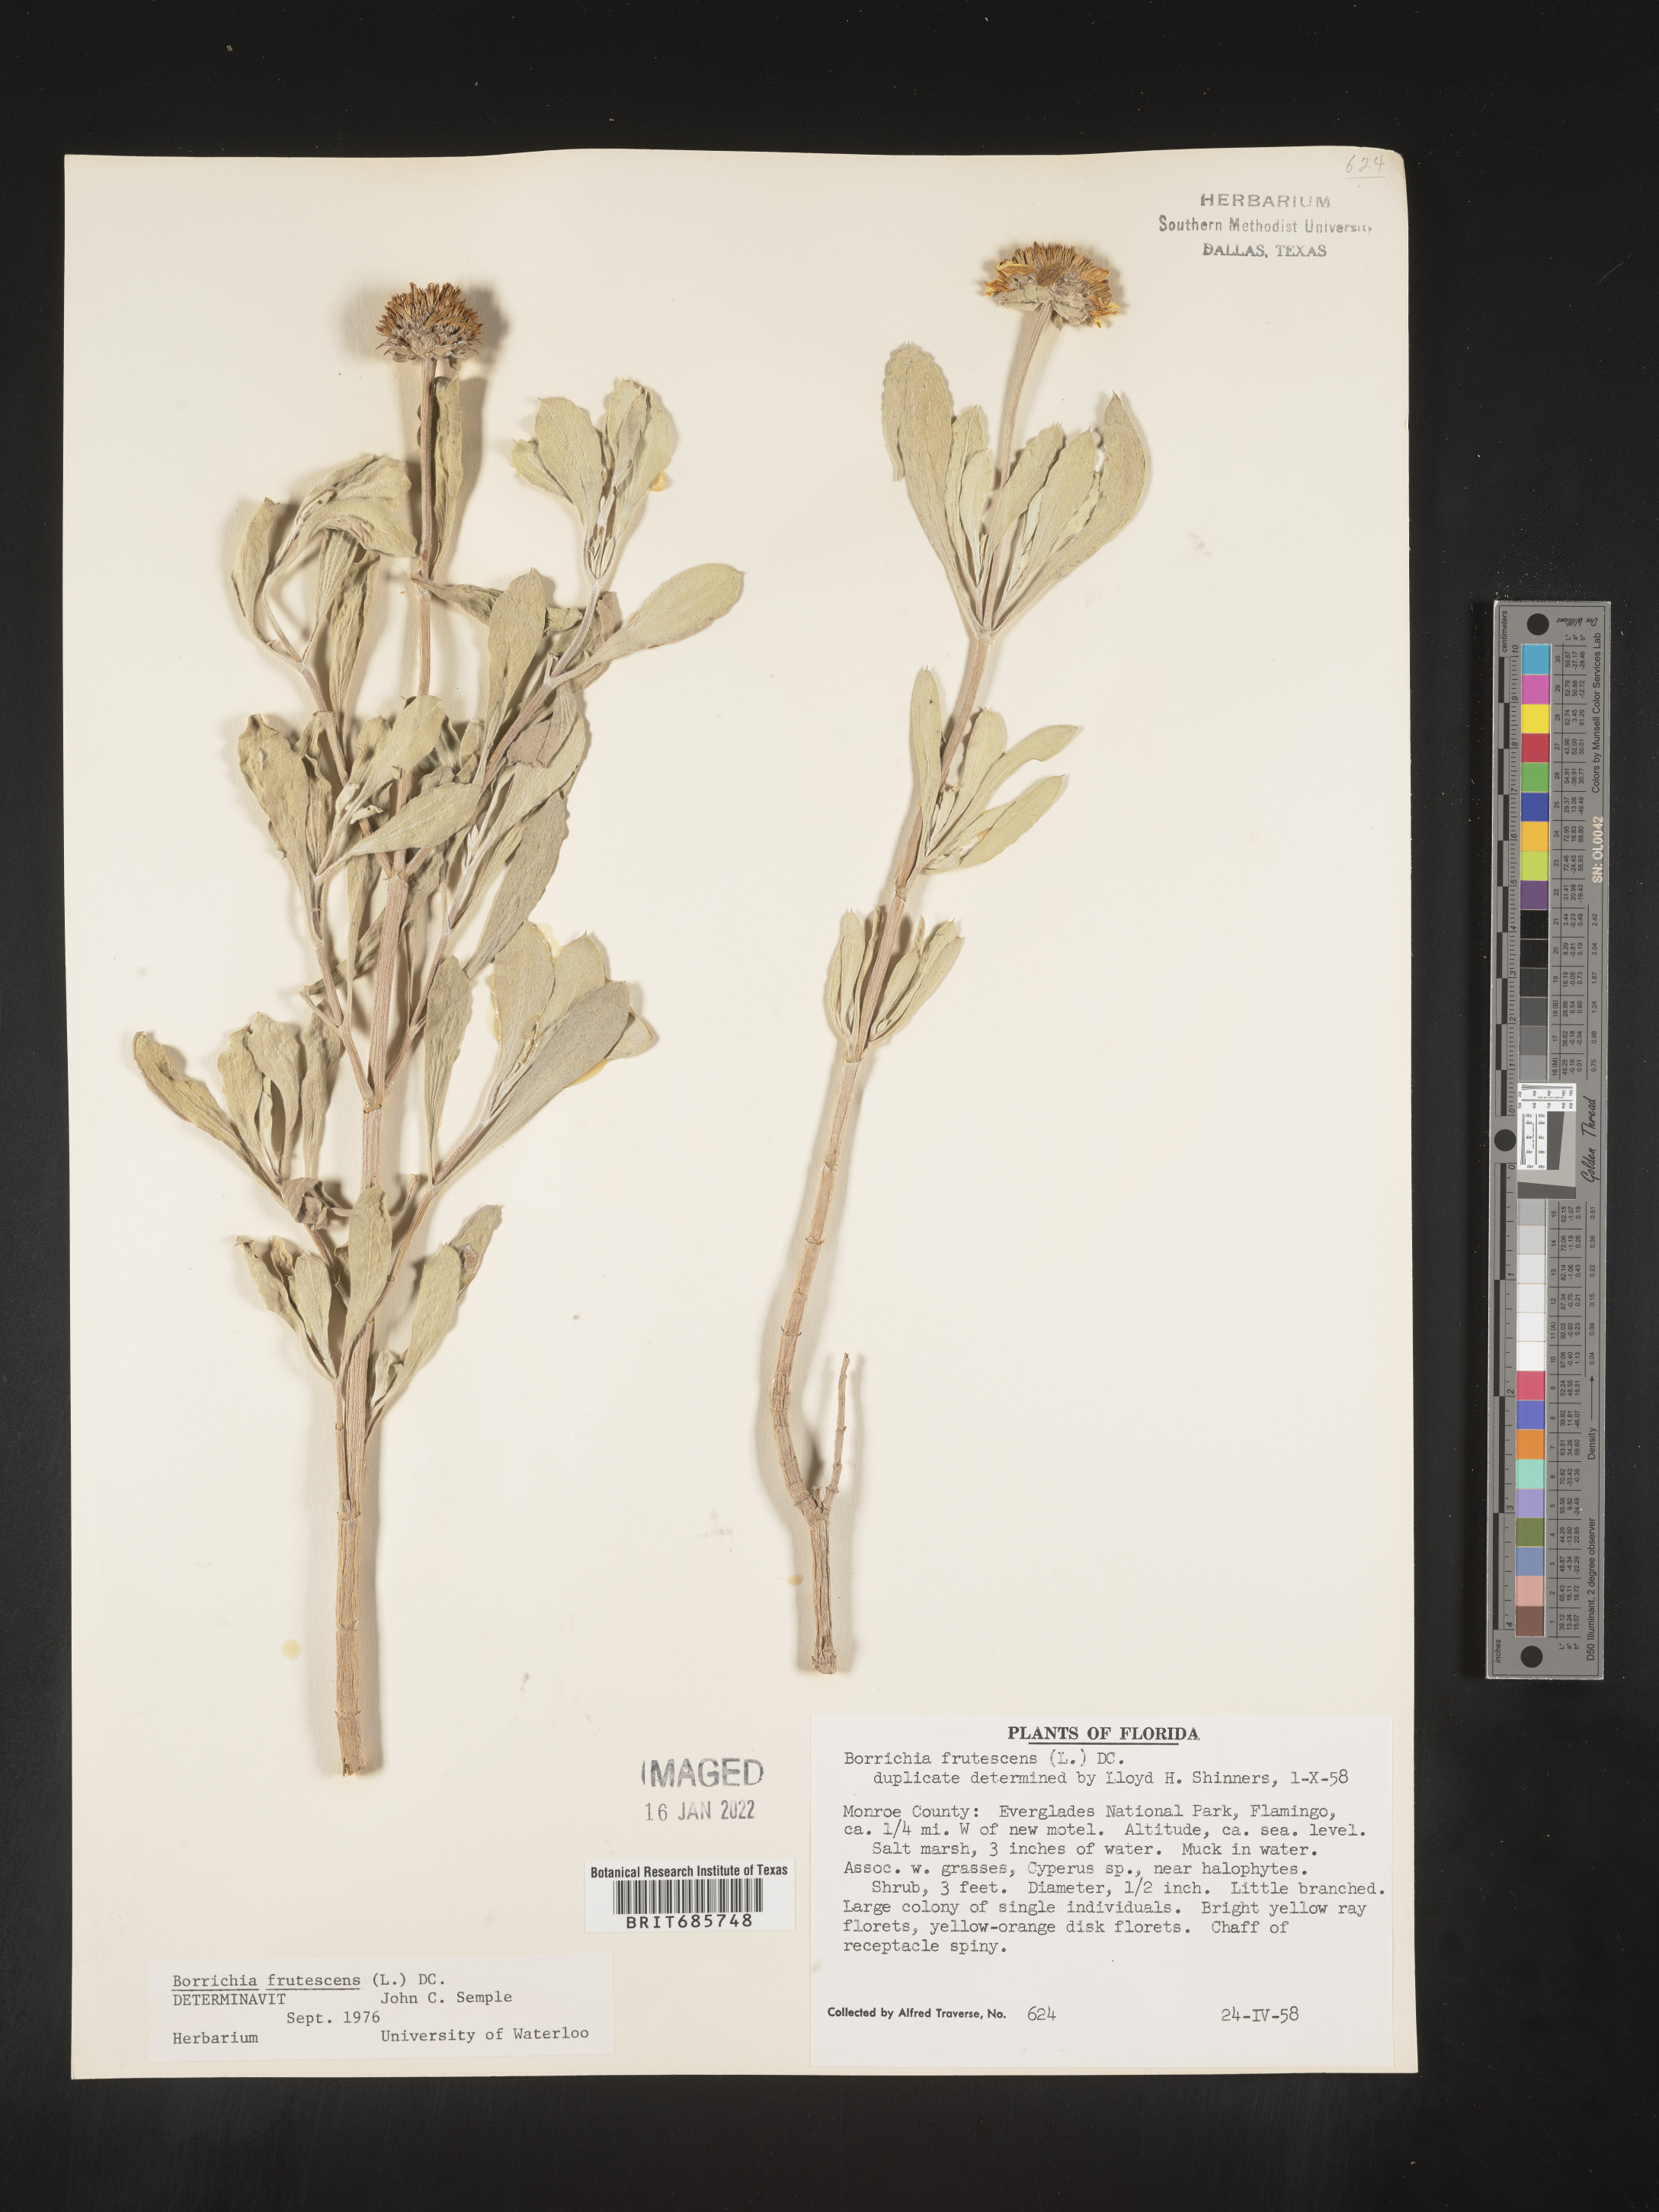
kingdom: Plantae
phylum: Tracheophyta
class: Magnoliopsida
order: Asterales
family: Asteraceae
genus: Borrichia
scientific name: Borrichia frutescens
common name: Sea oxeye
